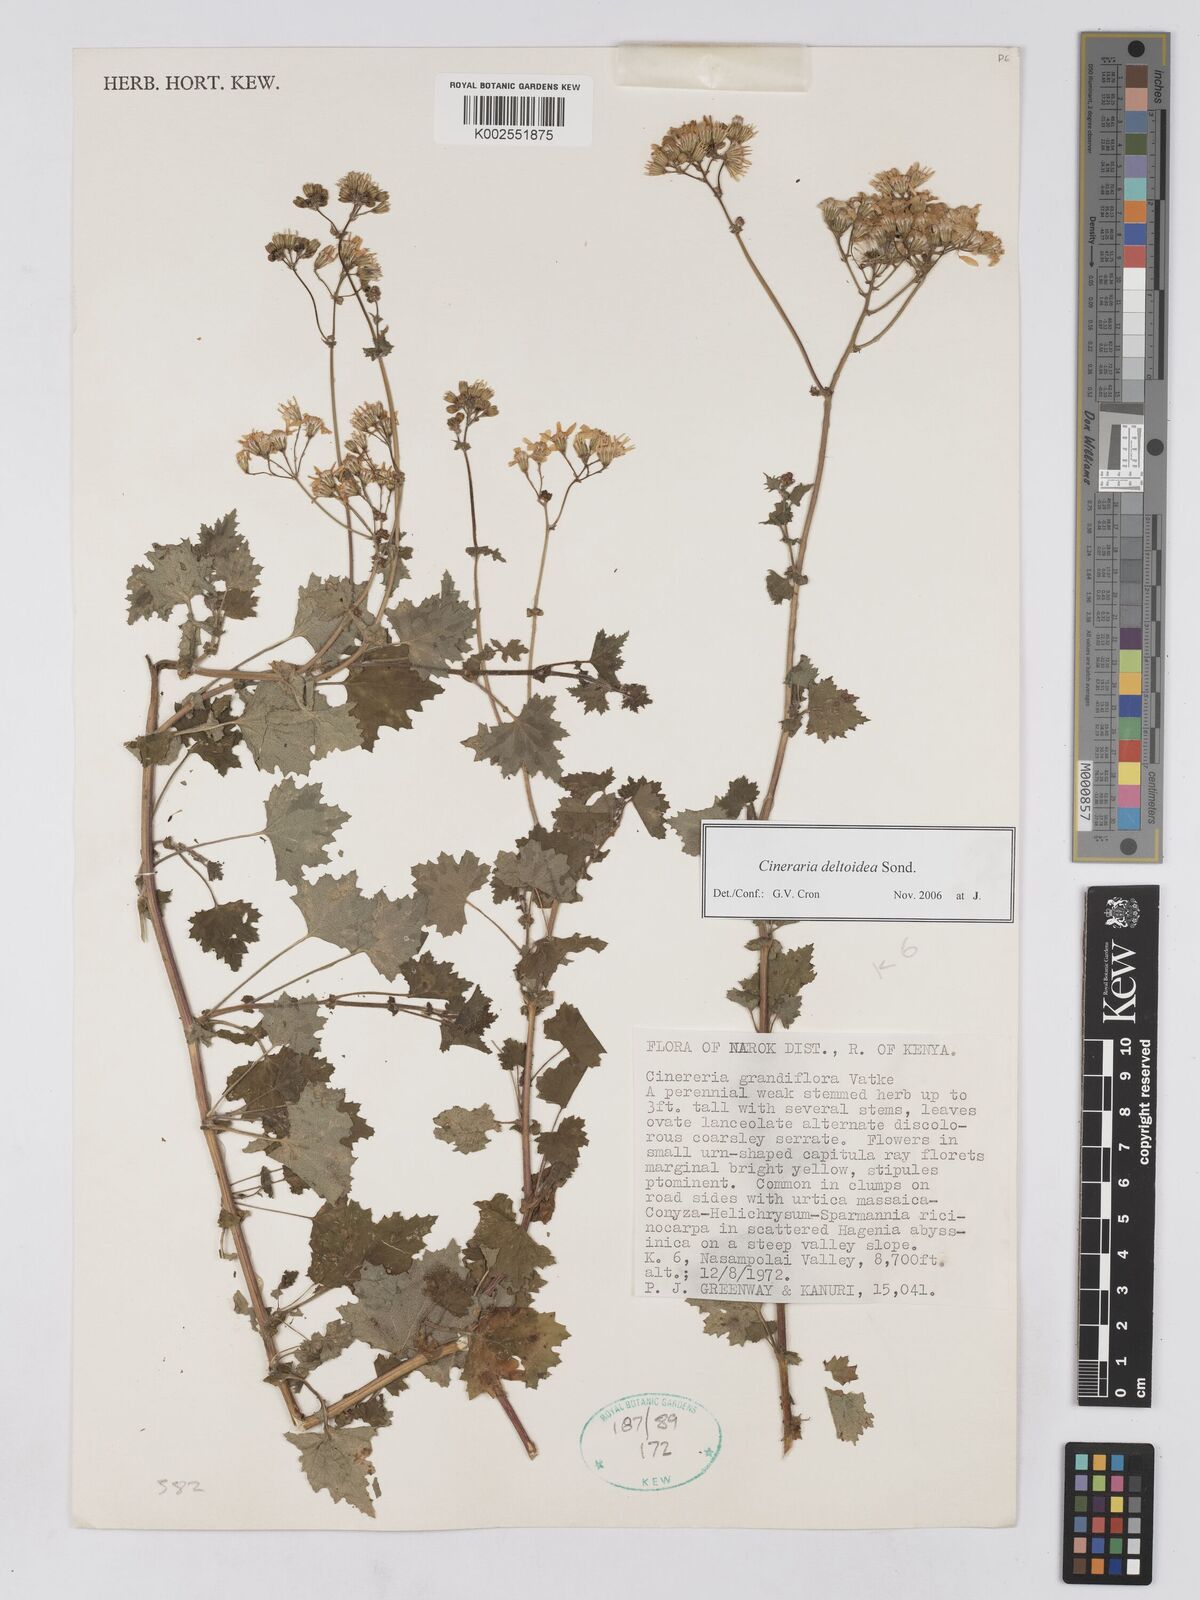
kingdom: Plantae
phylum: Tracheophyta
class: Magnoliopsida
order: Asterales
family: Asteraceae
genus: Cineraria
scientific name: Cineraria deltoidea
